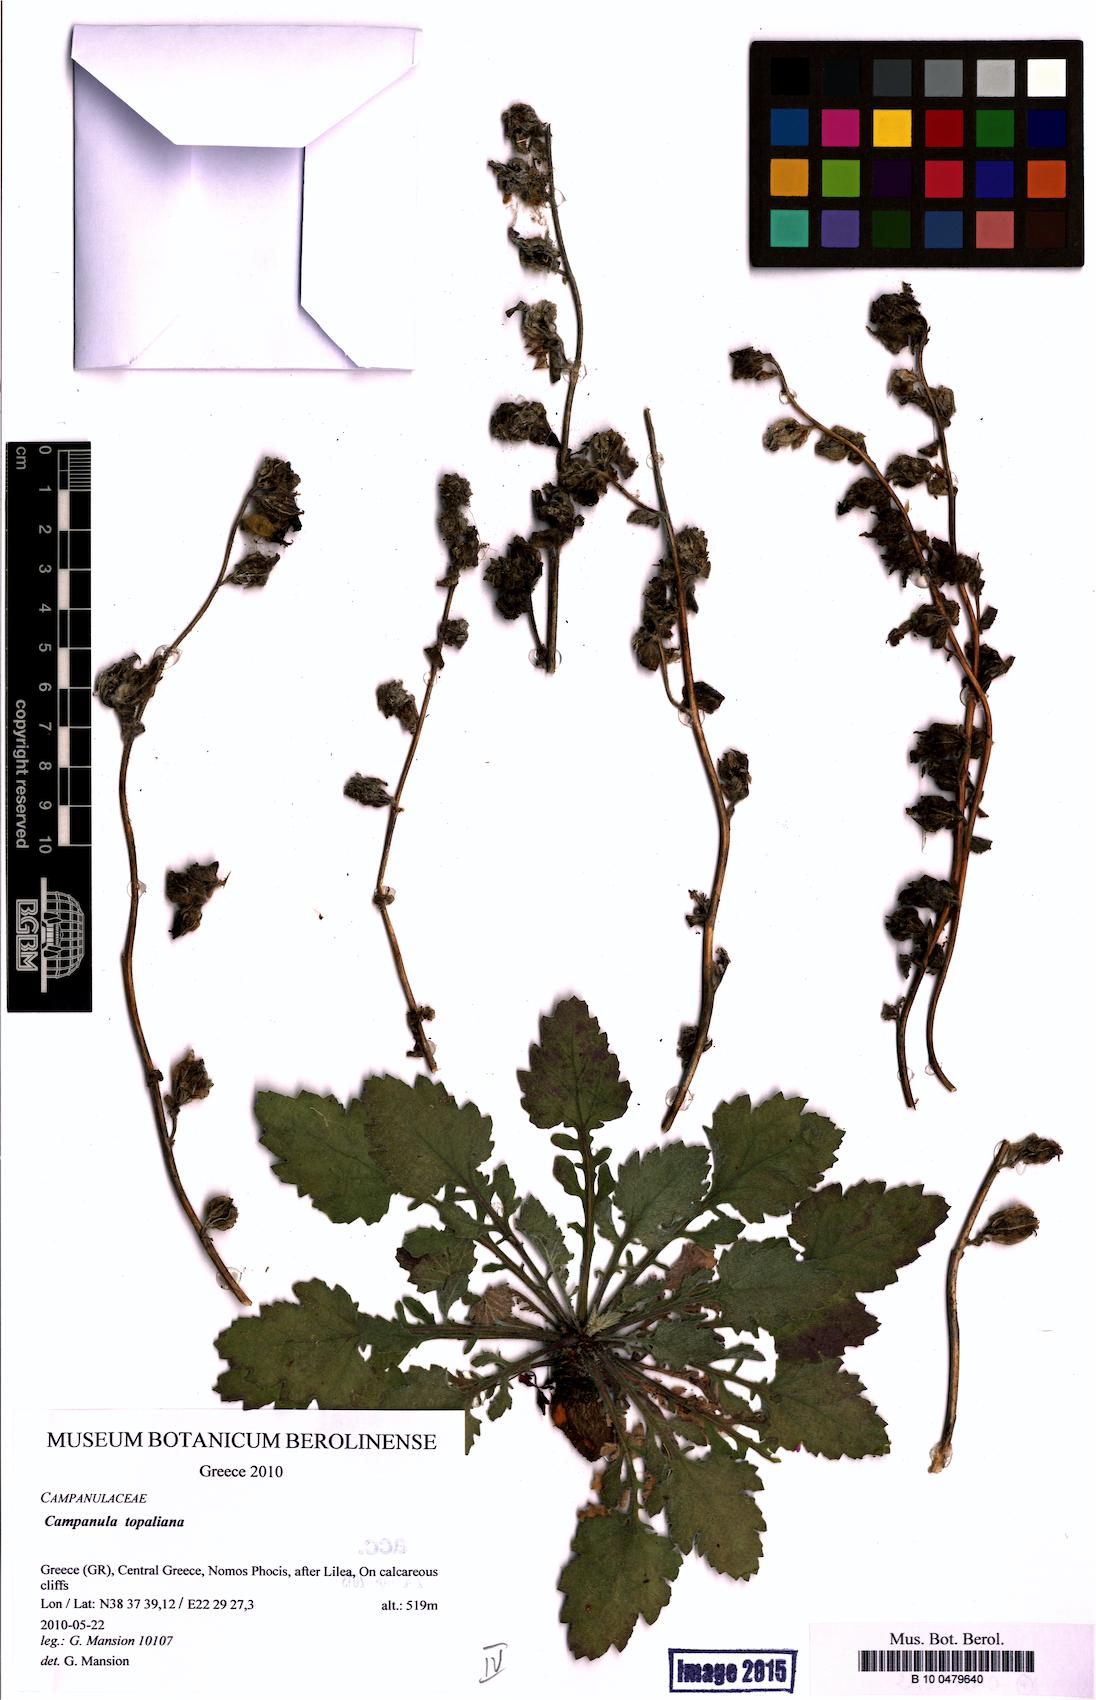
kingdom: Plantae
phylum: Tracheophyta
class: Magnoliopsida
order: Asterales
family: Campanulaceae
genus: Campanula
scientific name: Campanula topaliana
